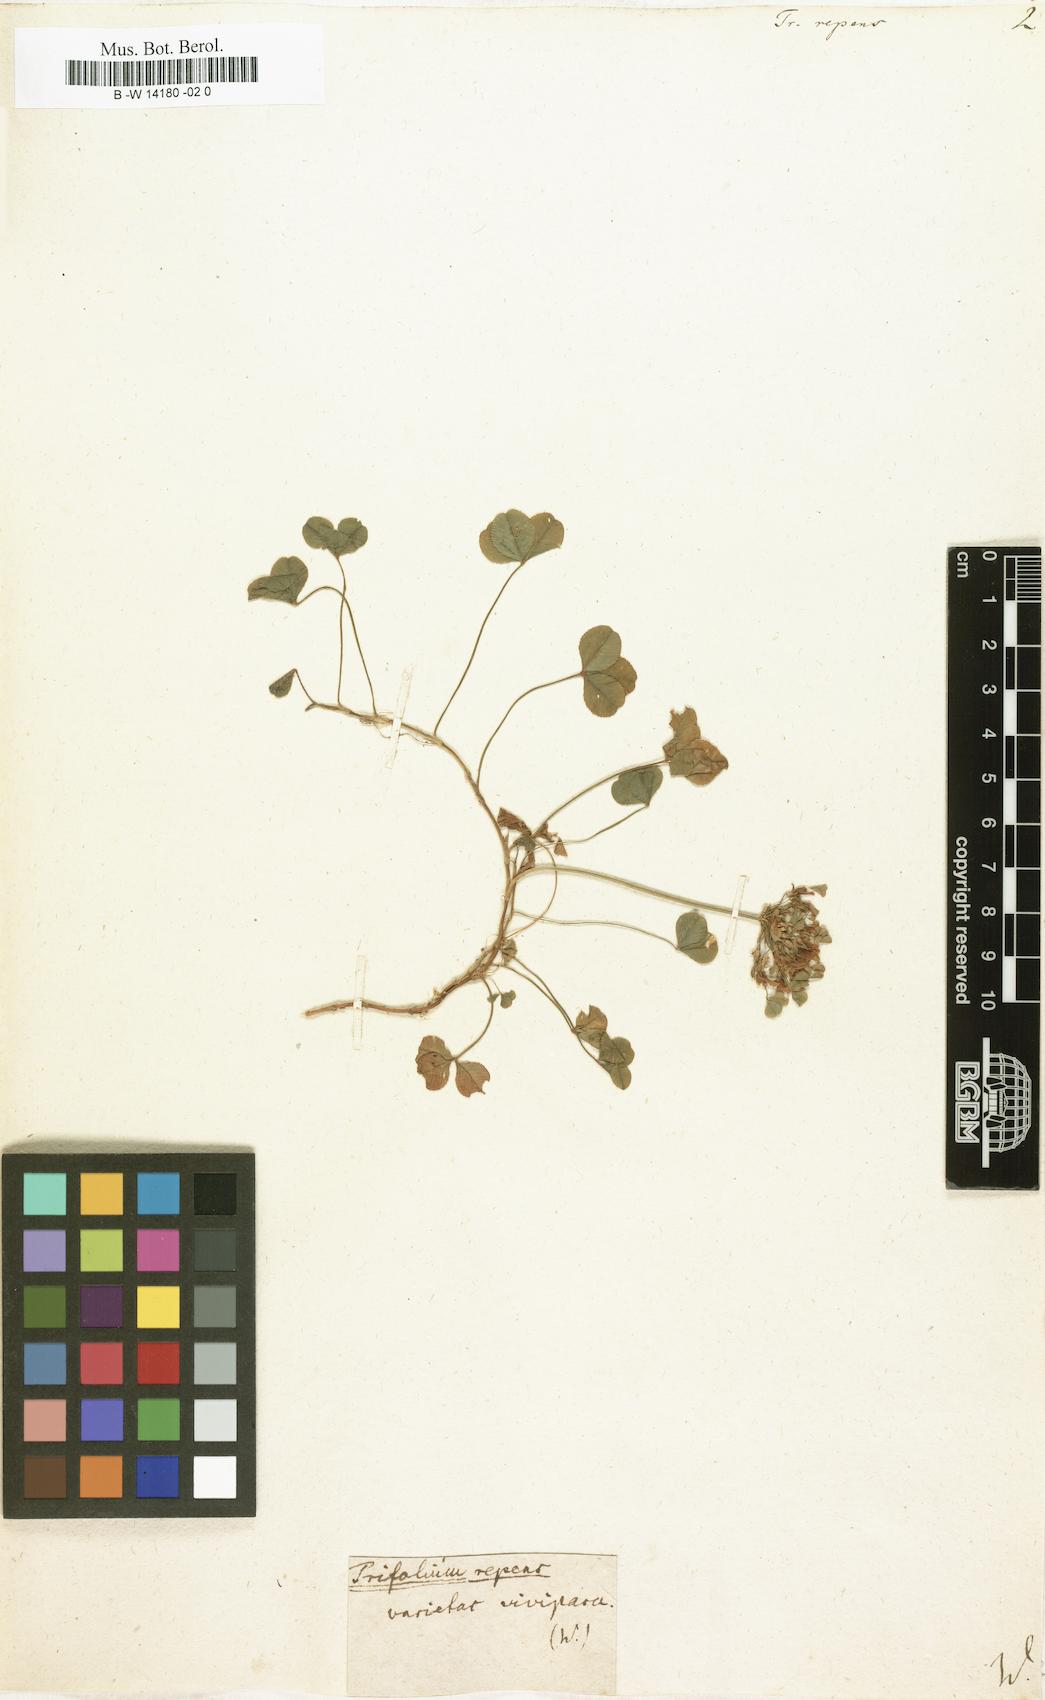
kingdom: Plantae
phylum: Tracheophyta
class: Magnoliopsida
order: Fabales
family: Fabaceae
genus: Trifolium
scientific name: Trifolium repens
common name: White clover
